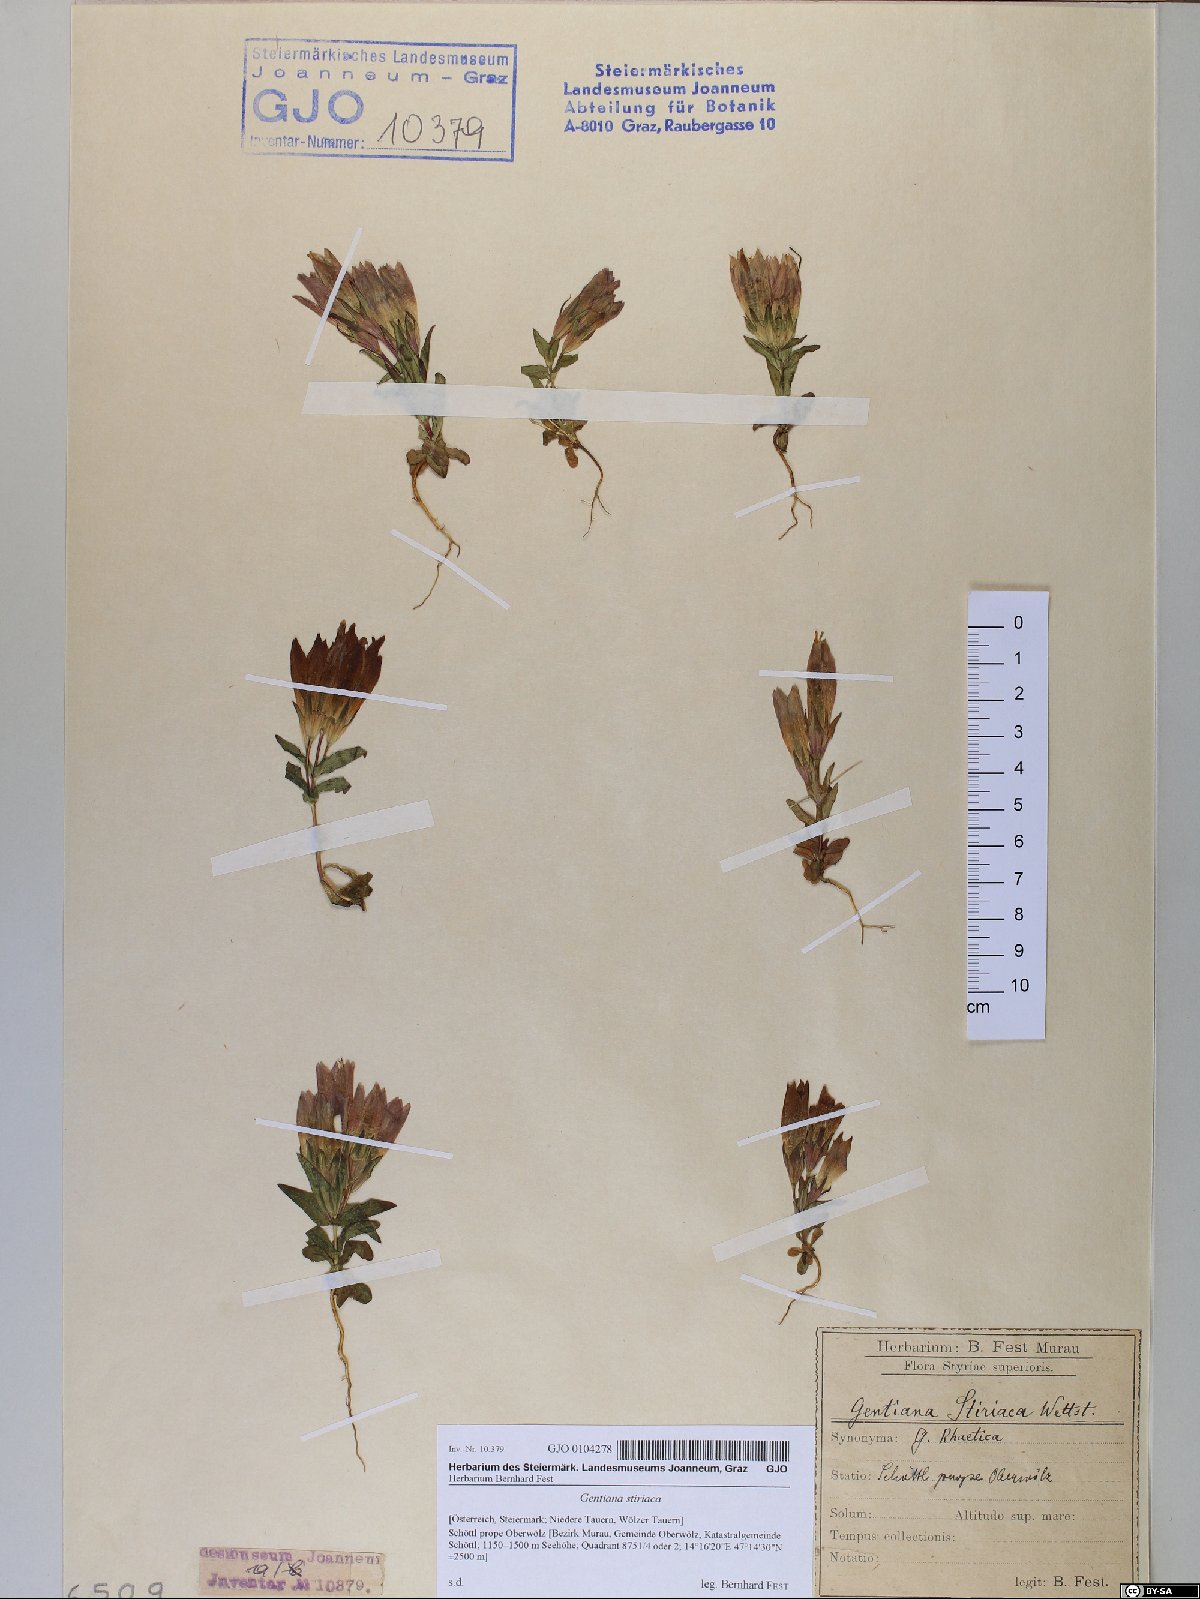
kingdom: Plantae
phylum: Tracheophyta
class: Magnoliopsida
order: Gentianales
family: Gentianaceae
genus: Gentianella
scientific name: Gentianella rhaetica
